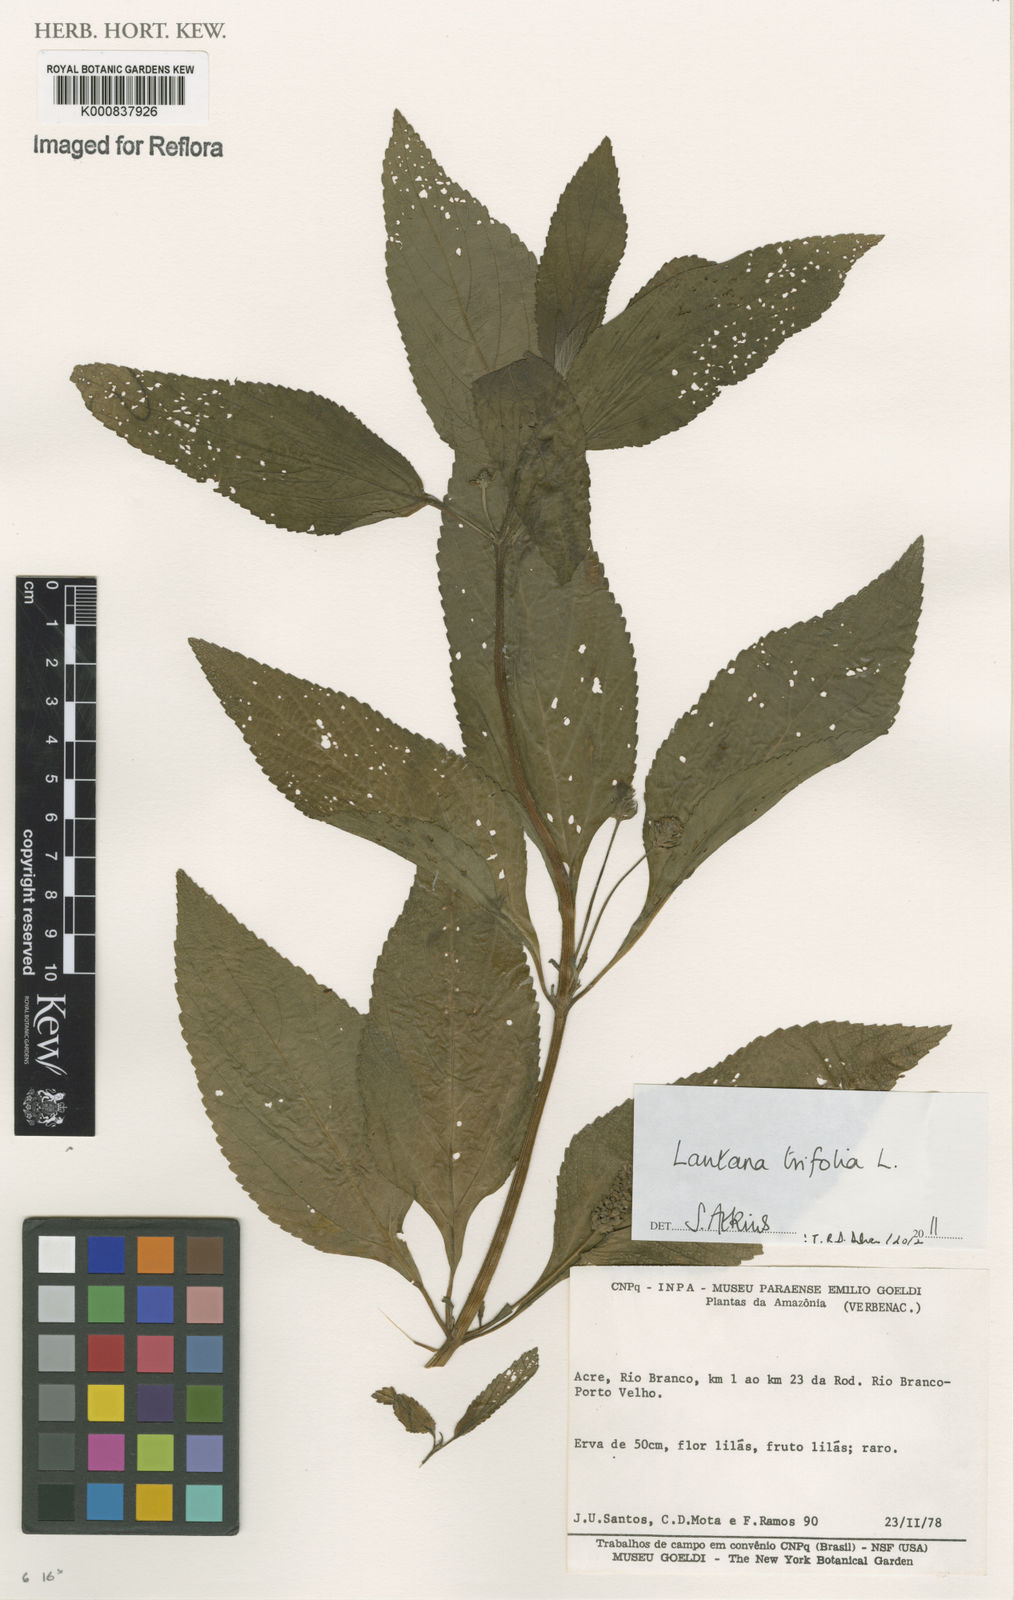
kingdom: Plantae
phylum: Tracheophyta
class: Magnoliopsida
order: Lamiales
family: Verbenaceae
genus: Lantana
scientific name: Lantana trifolia
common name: Sweet-sage
